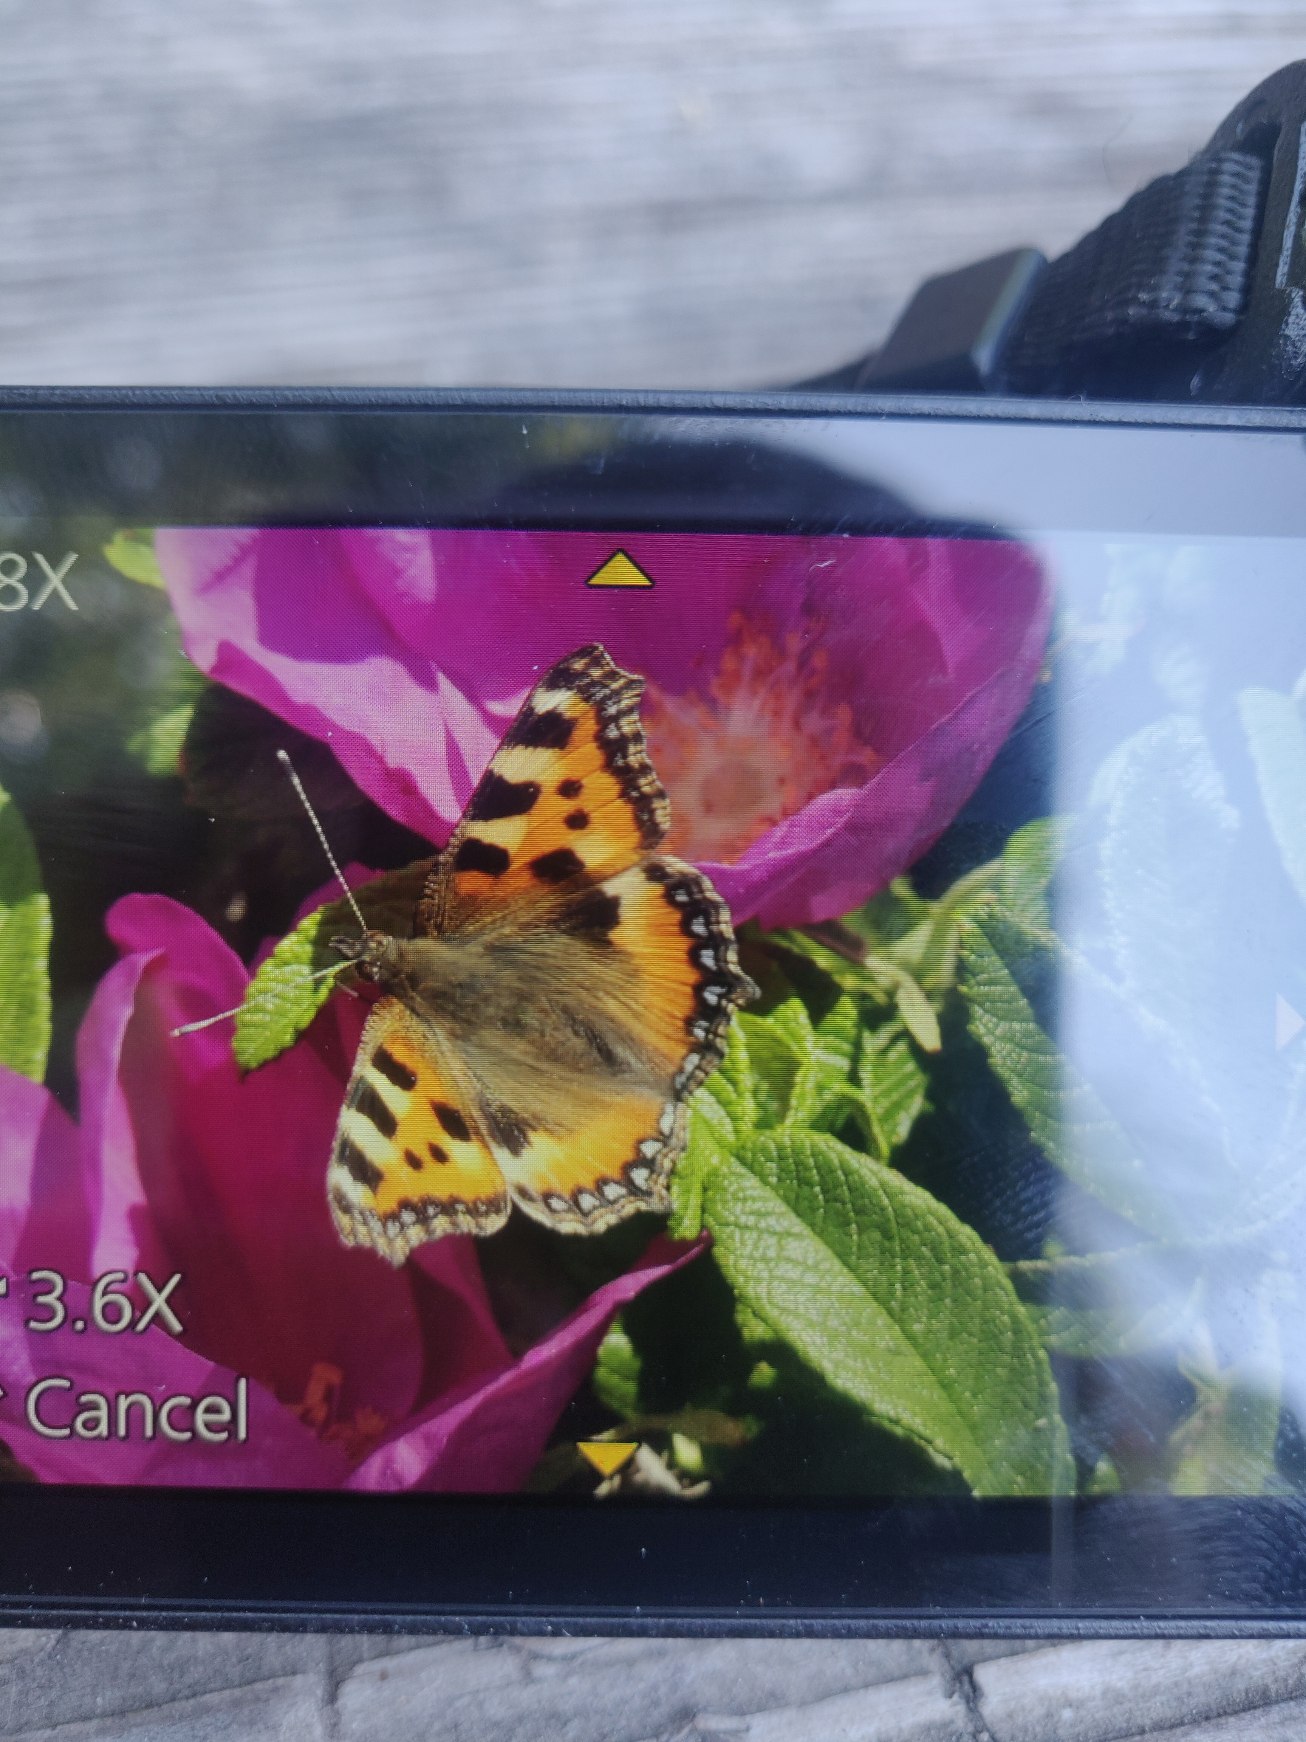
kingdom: Animalia
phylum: Arthropoda
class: Insecta
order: Lepidoptera
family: Nymphalidae
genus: Aglais
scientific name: Aglais urticae
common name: Nældens takvinge
